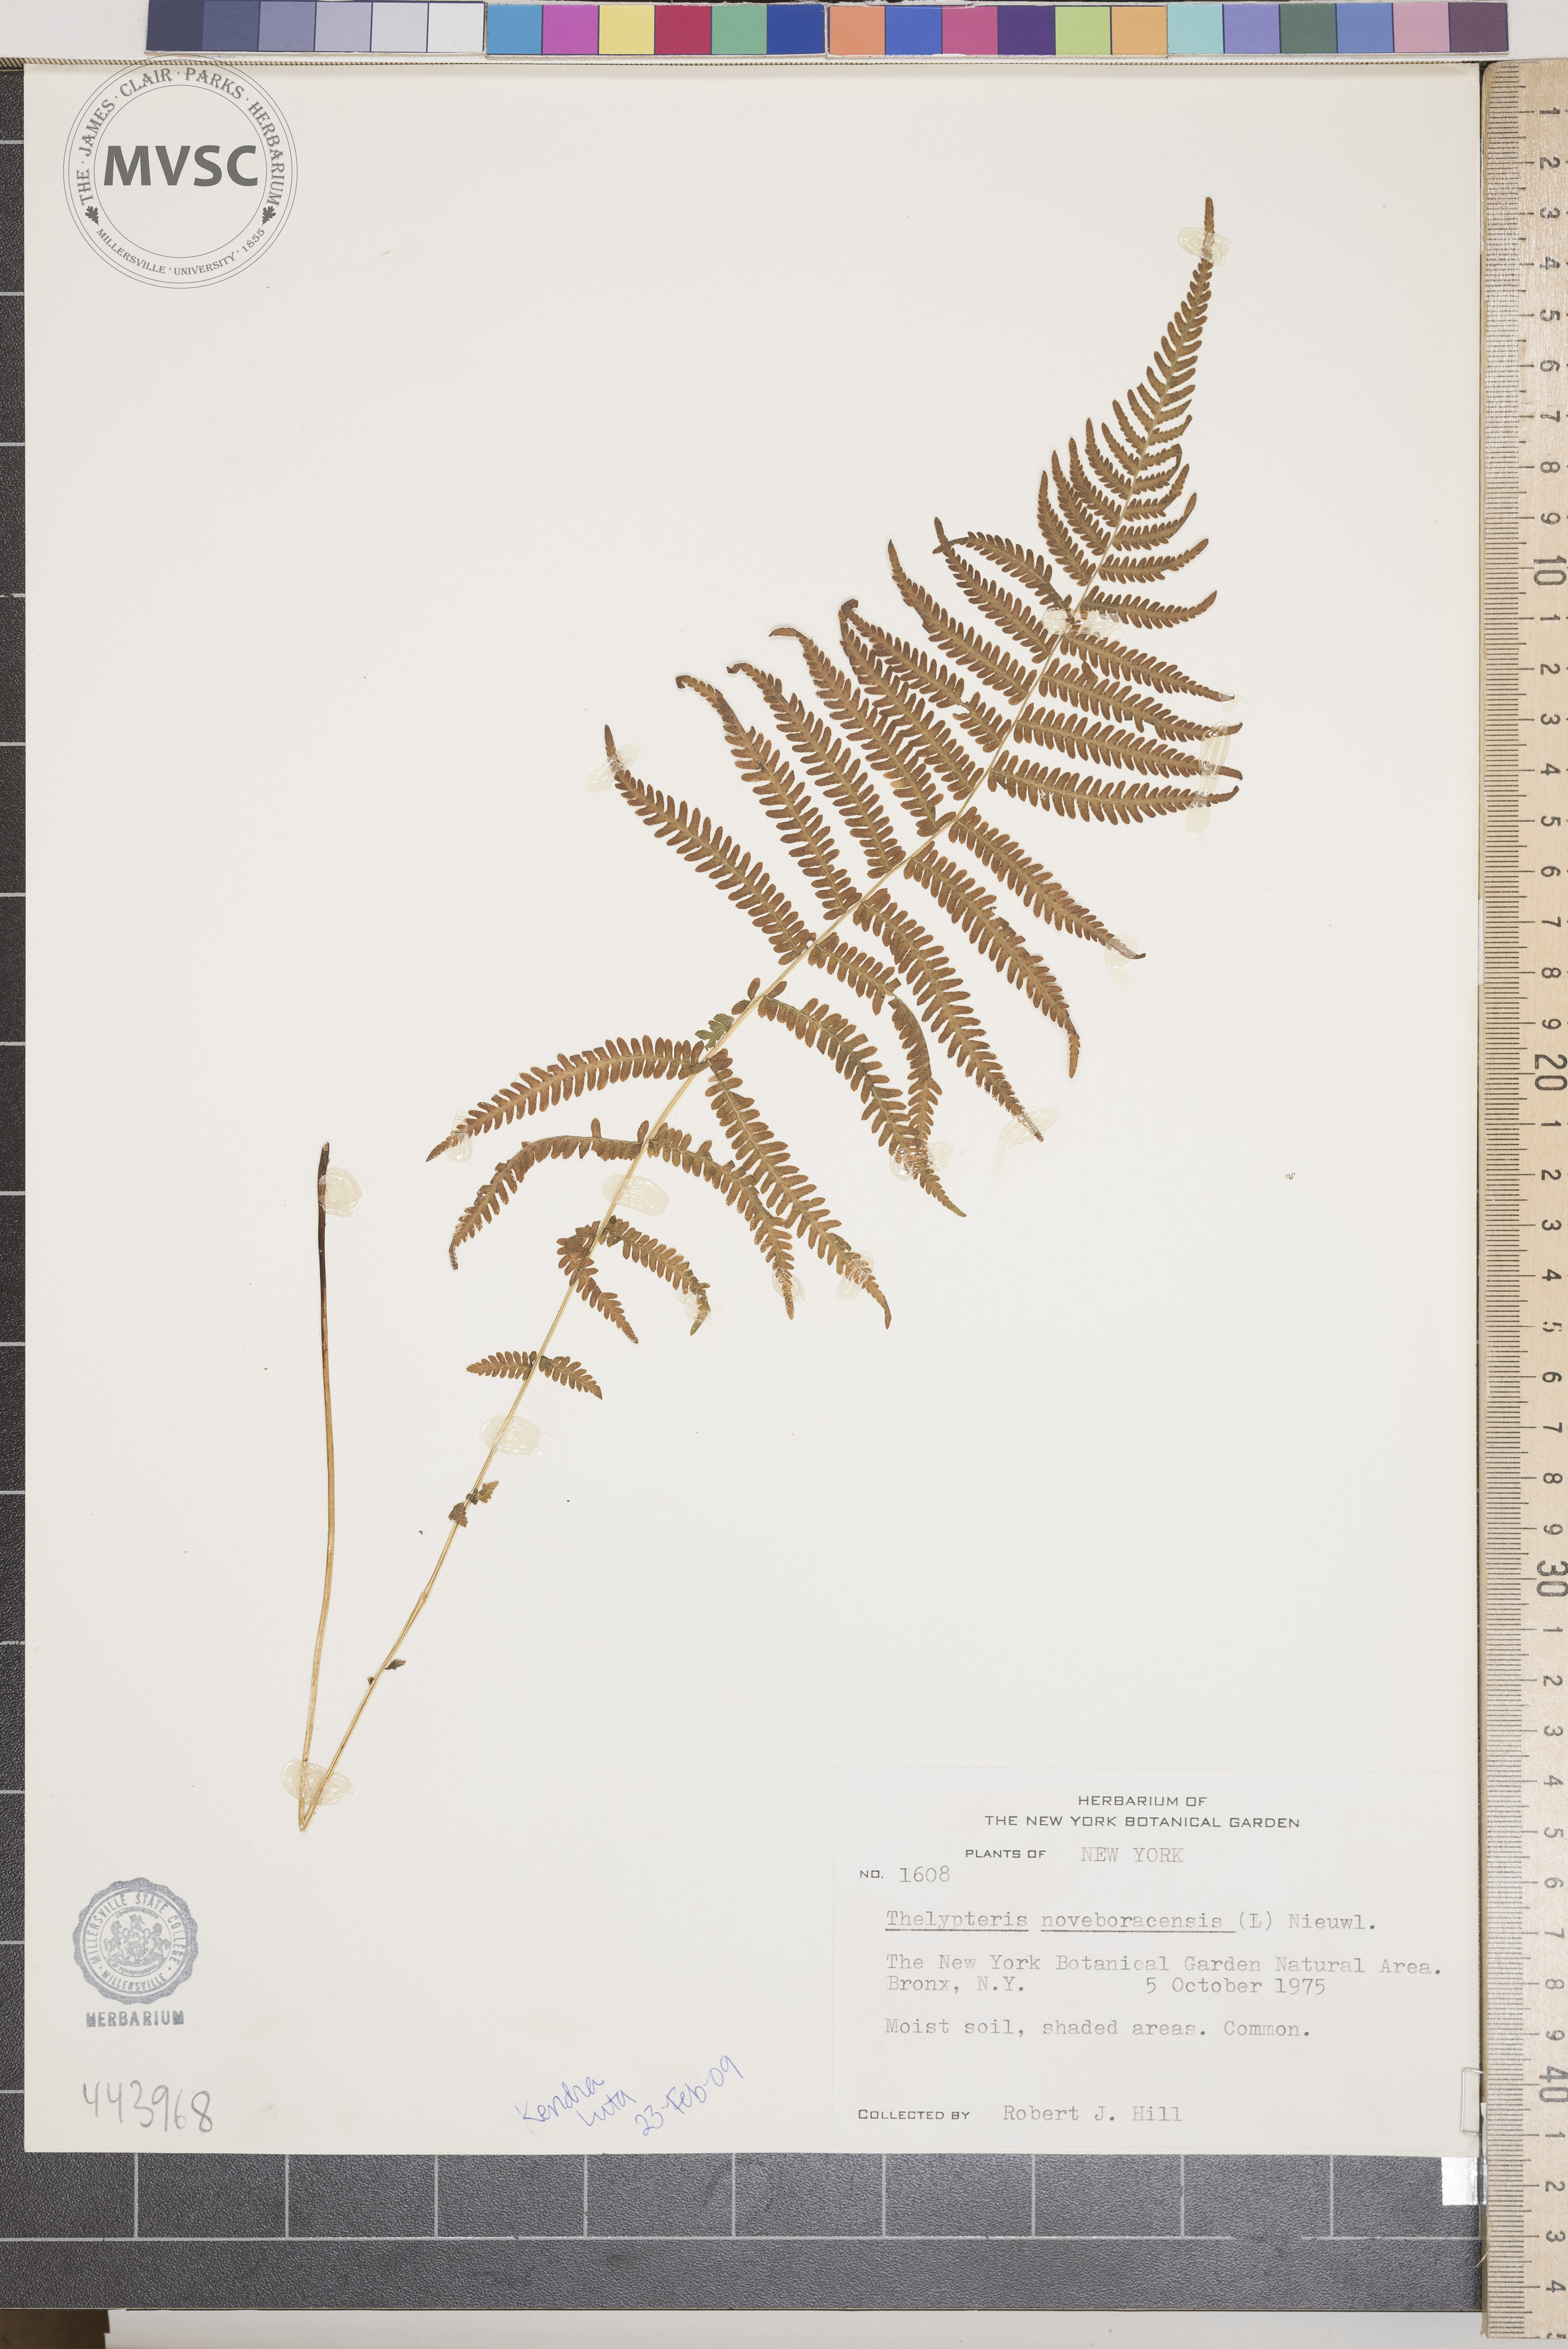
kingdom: Plantae
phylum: Tracheophyta
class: Polypodiopsida
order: Polypodiales
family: Thelypteridaceae
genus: Amauropelta
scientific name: Amauropelta noveboracensis
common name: New york fern
